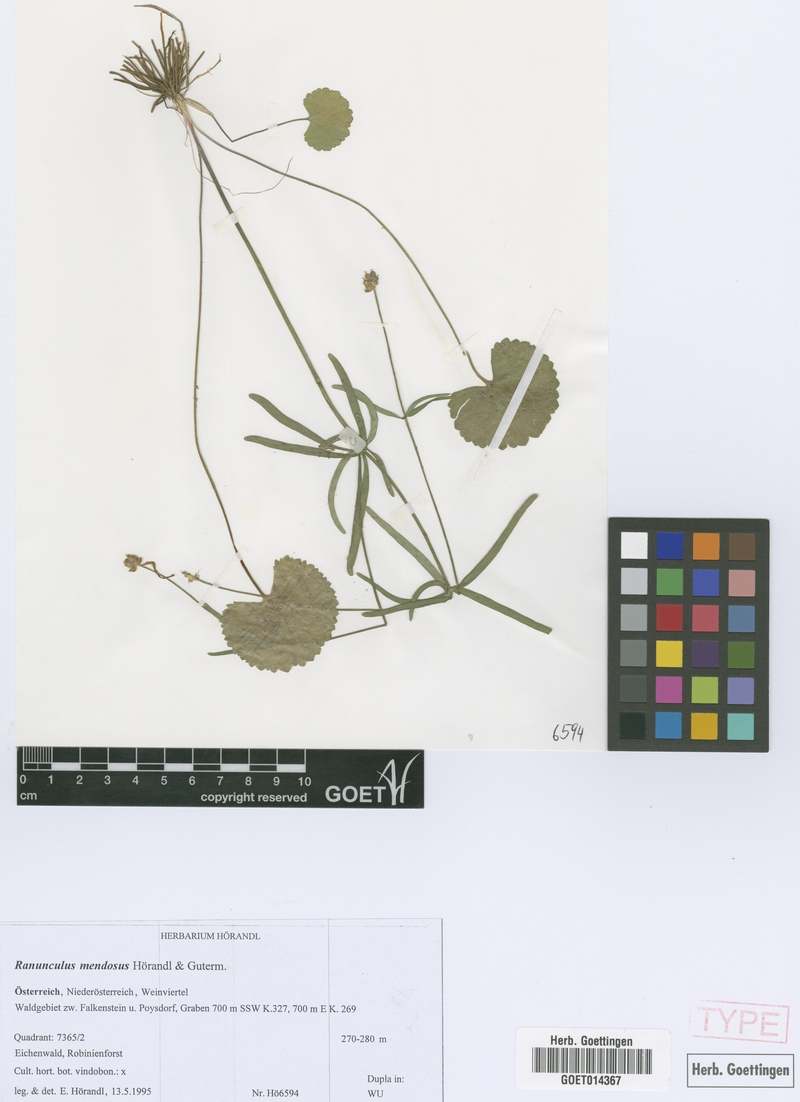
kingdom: Plantae
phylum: Tracheophyta
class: Magnoliopsida
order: Ranunculales
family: Ranunculaceae
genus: Ranunculus
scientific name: Ranunculus mendosus
